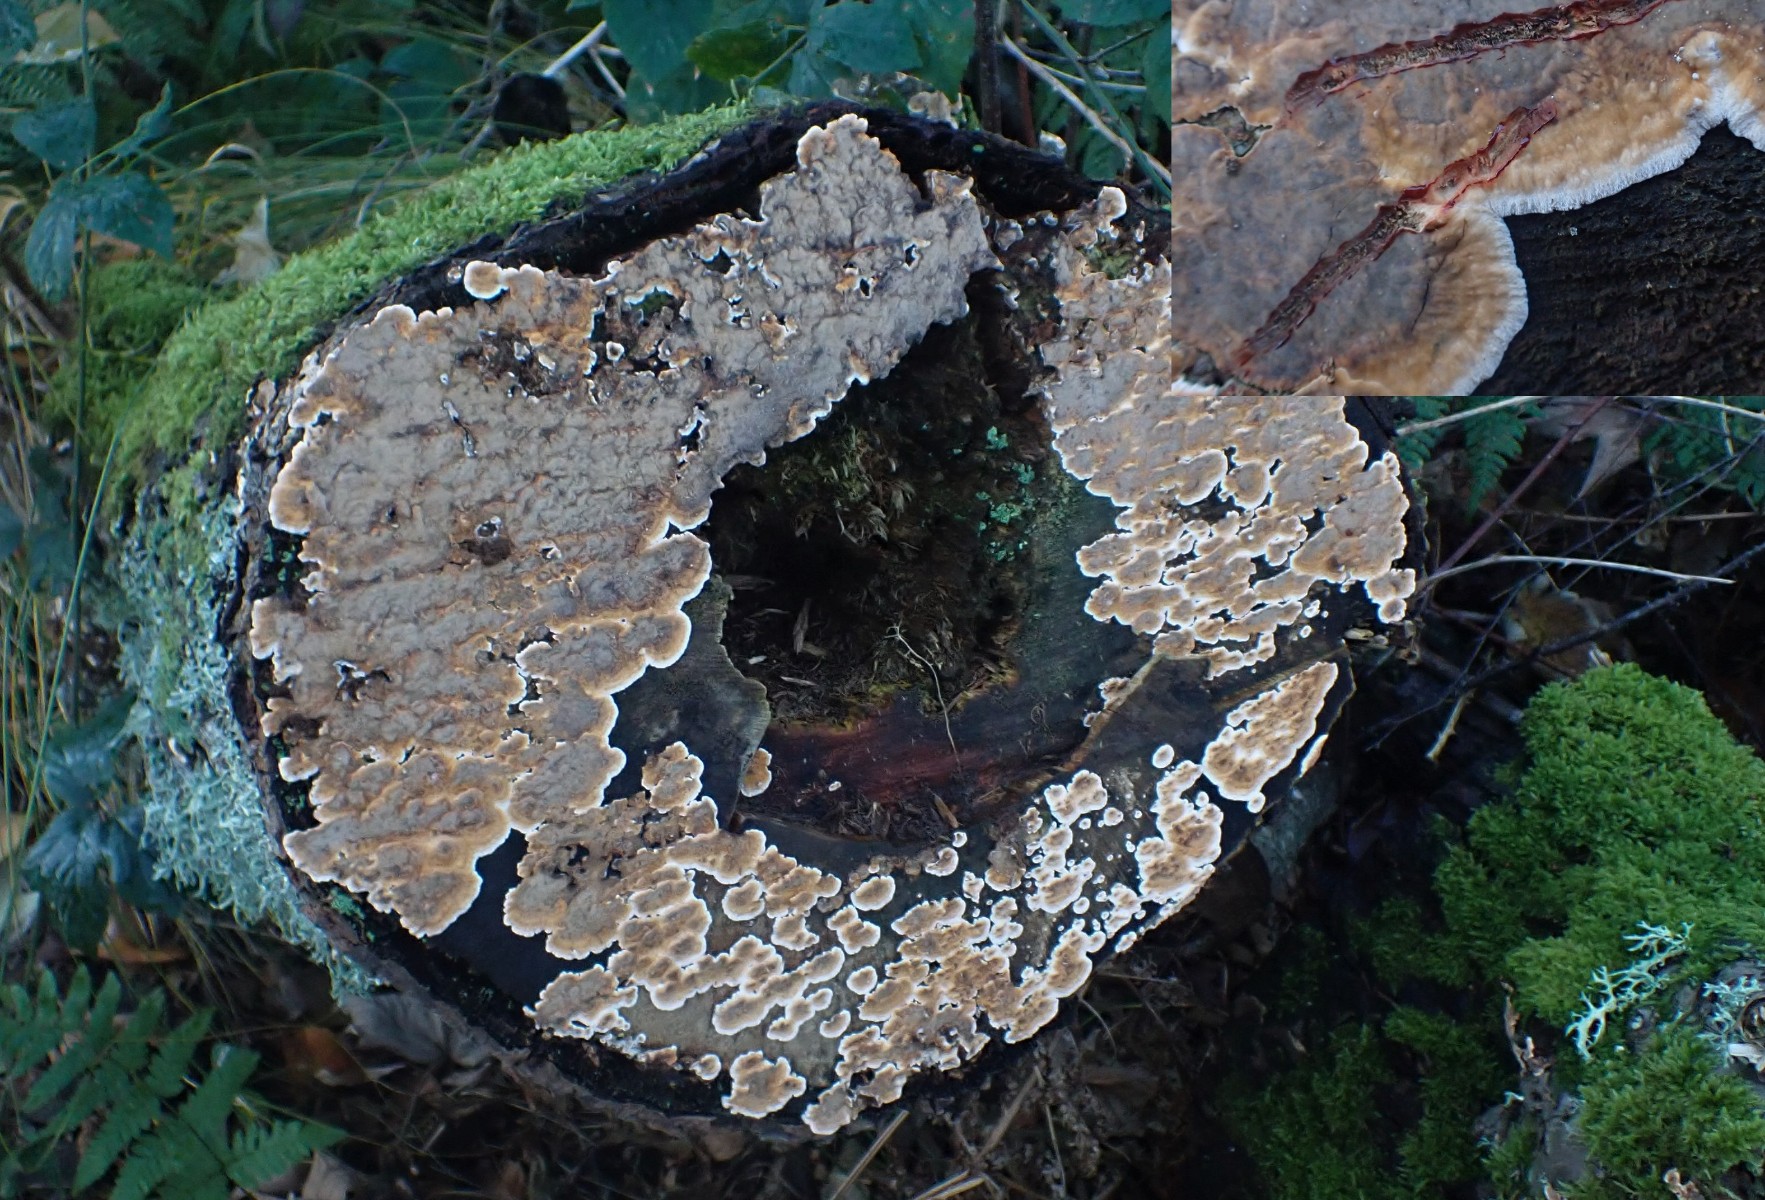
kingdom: Fungi
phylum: Basidiomycota
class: Agaricomycetes
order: Russulales
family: Stereaceae
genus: Stereum
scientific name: Stereum rugosum
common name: rynket lædersvamp
